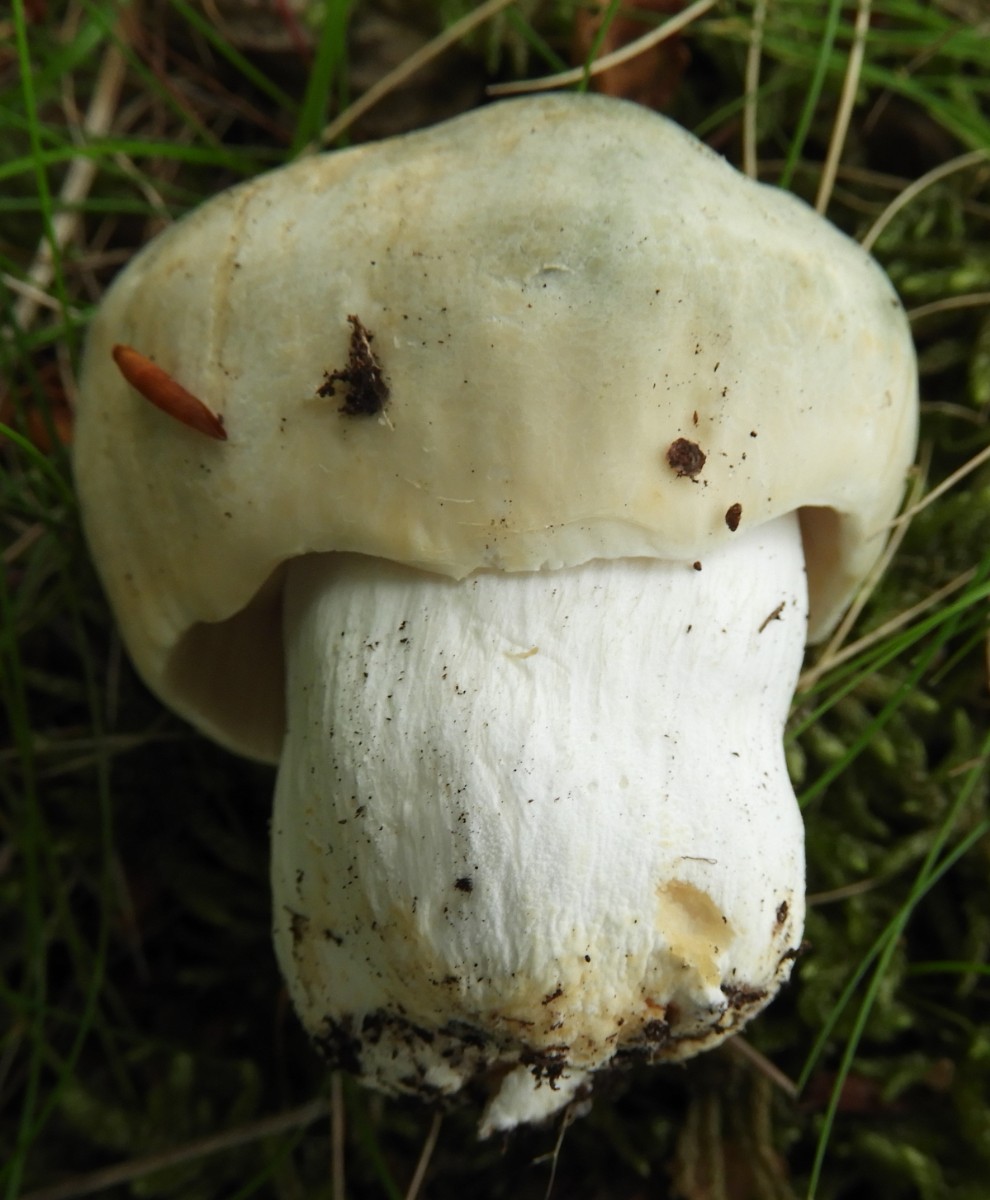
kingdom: Fungi
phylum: Basidiomycota
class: Agaricomycetes
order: Russulales
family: Russulaceae
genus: Russula
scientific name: Russula virescens
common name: spanskgrøn skørhat
